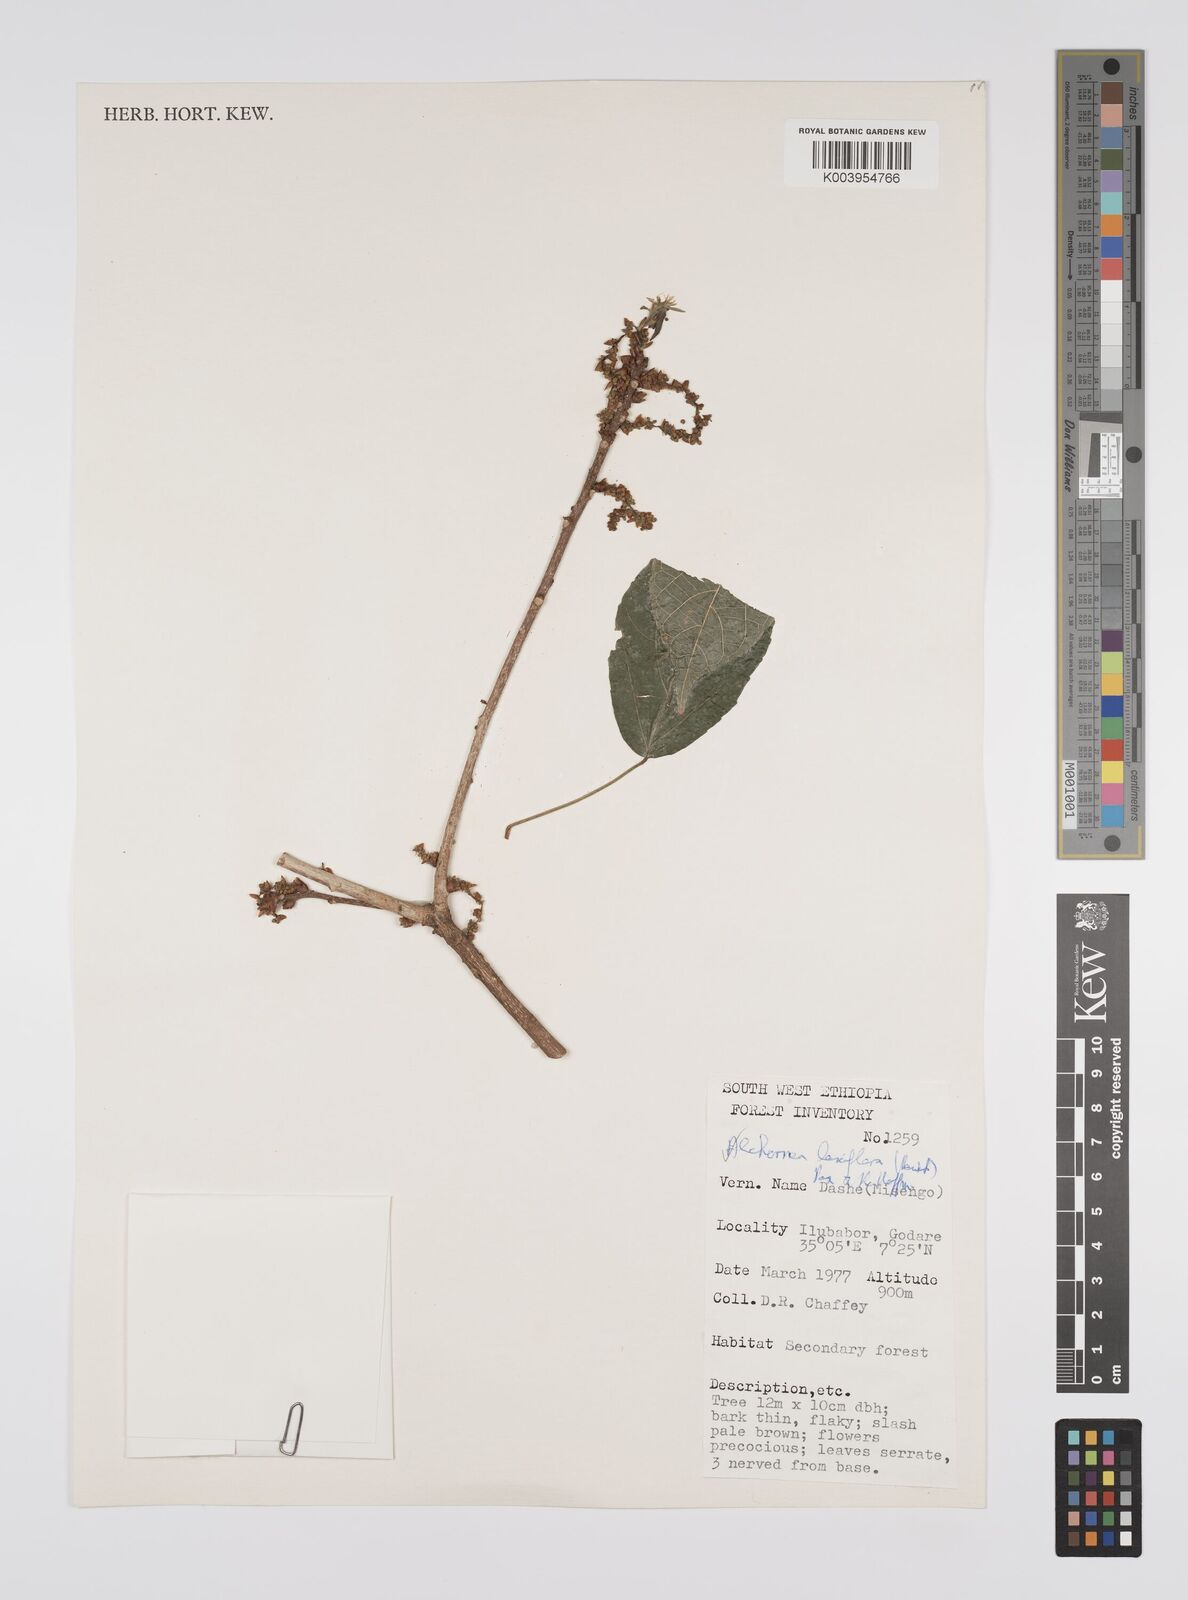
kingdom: Plantae
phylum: Tracheophyta
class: Magnoliopsida
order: Malpighiales
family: Euphorbiaceae
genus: Alchornea
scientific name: Alchornea laxiflora
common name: Lowveld bead-string
